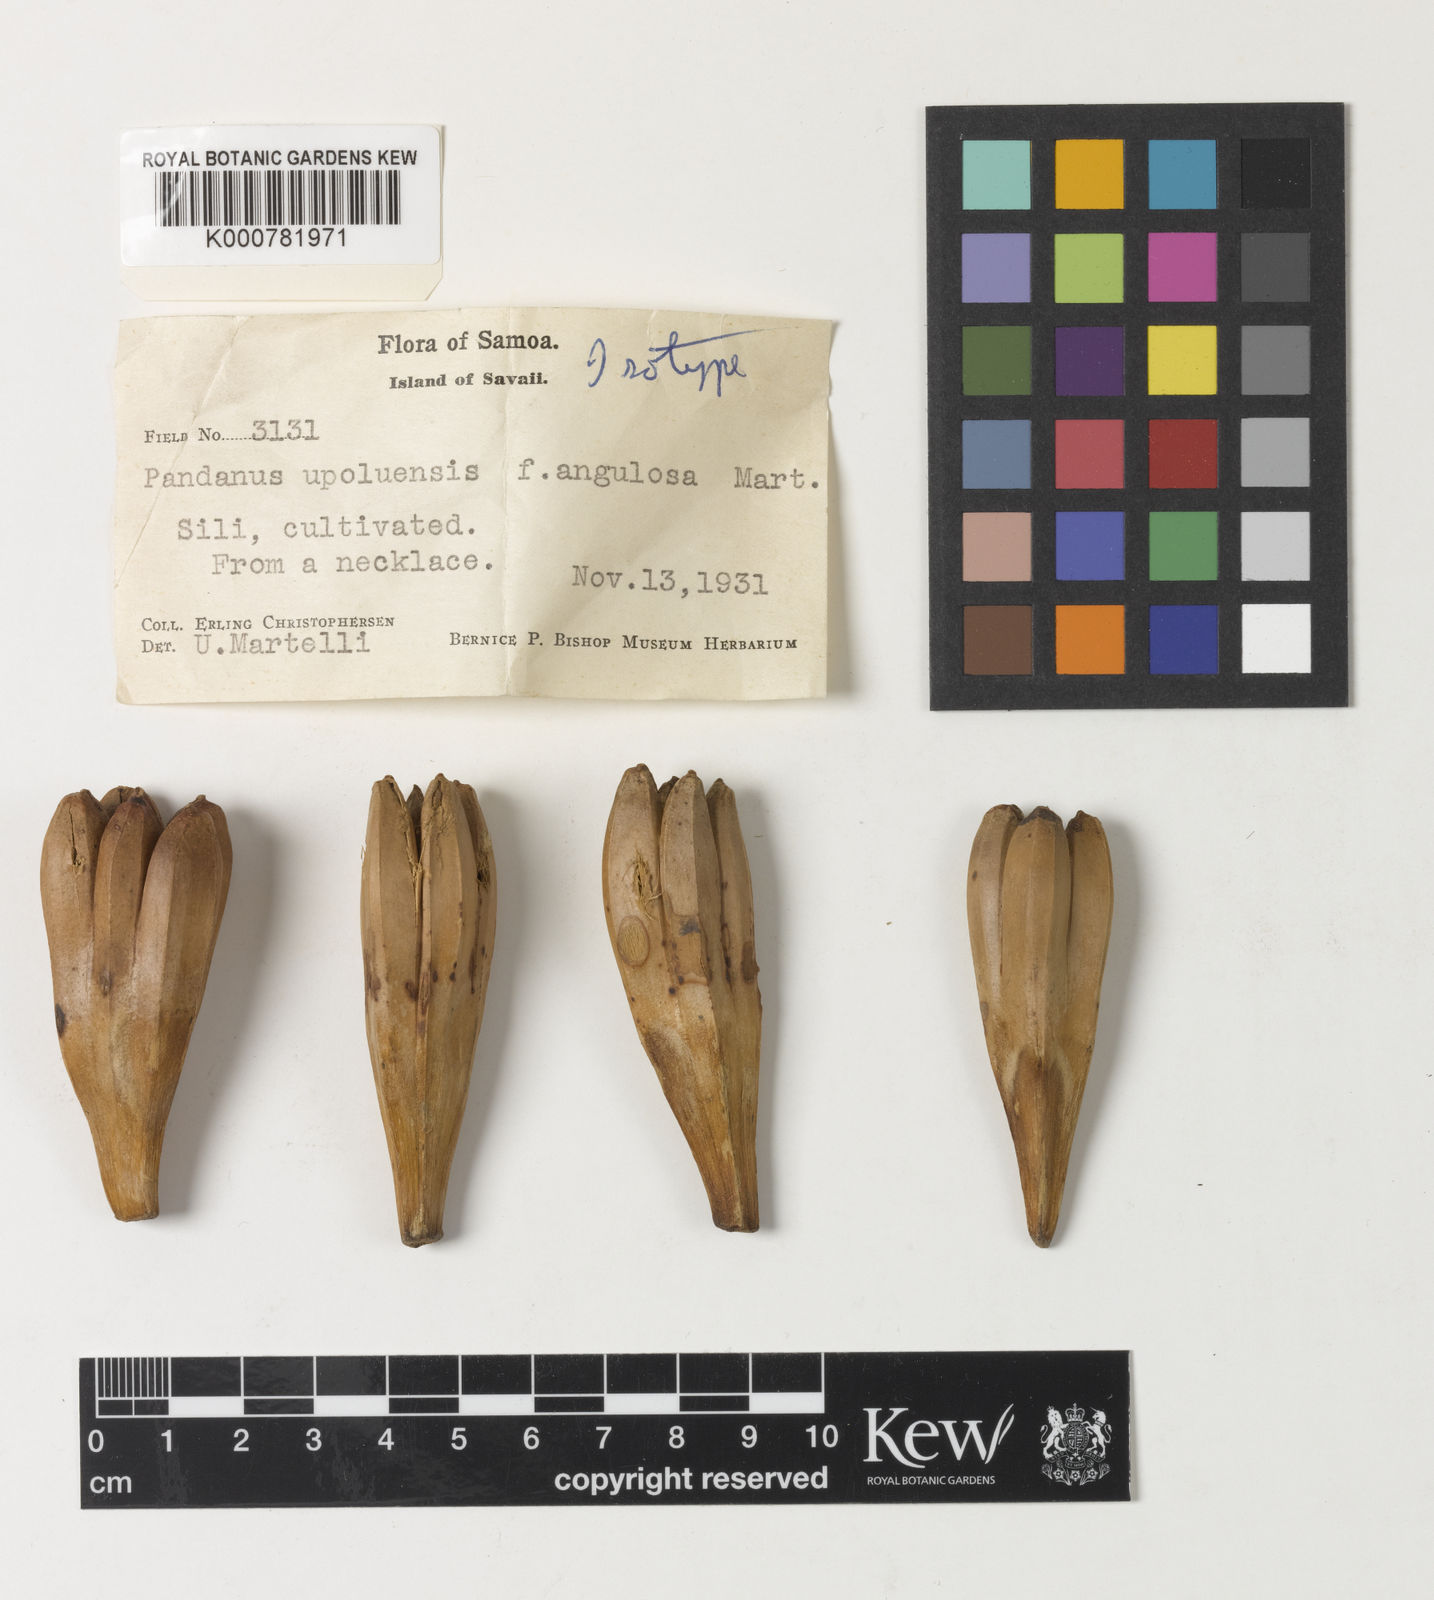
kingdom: Plantae
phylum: Tracheophyta
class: Liliopsida
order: Pandanales
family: Pandanaceae
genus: Pandanus
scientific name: Pandanus tectorius
